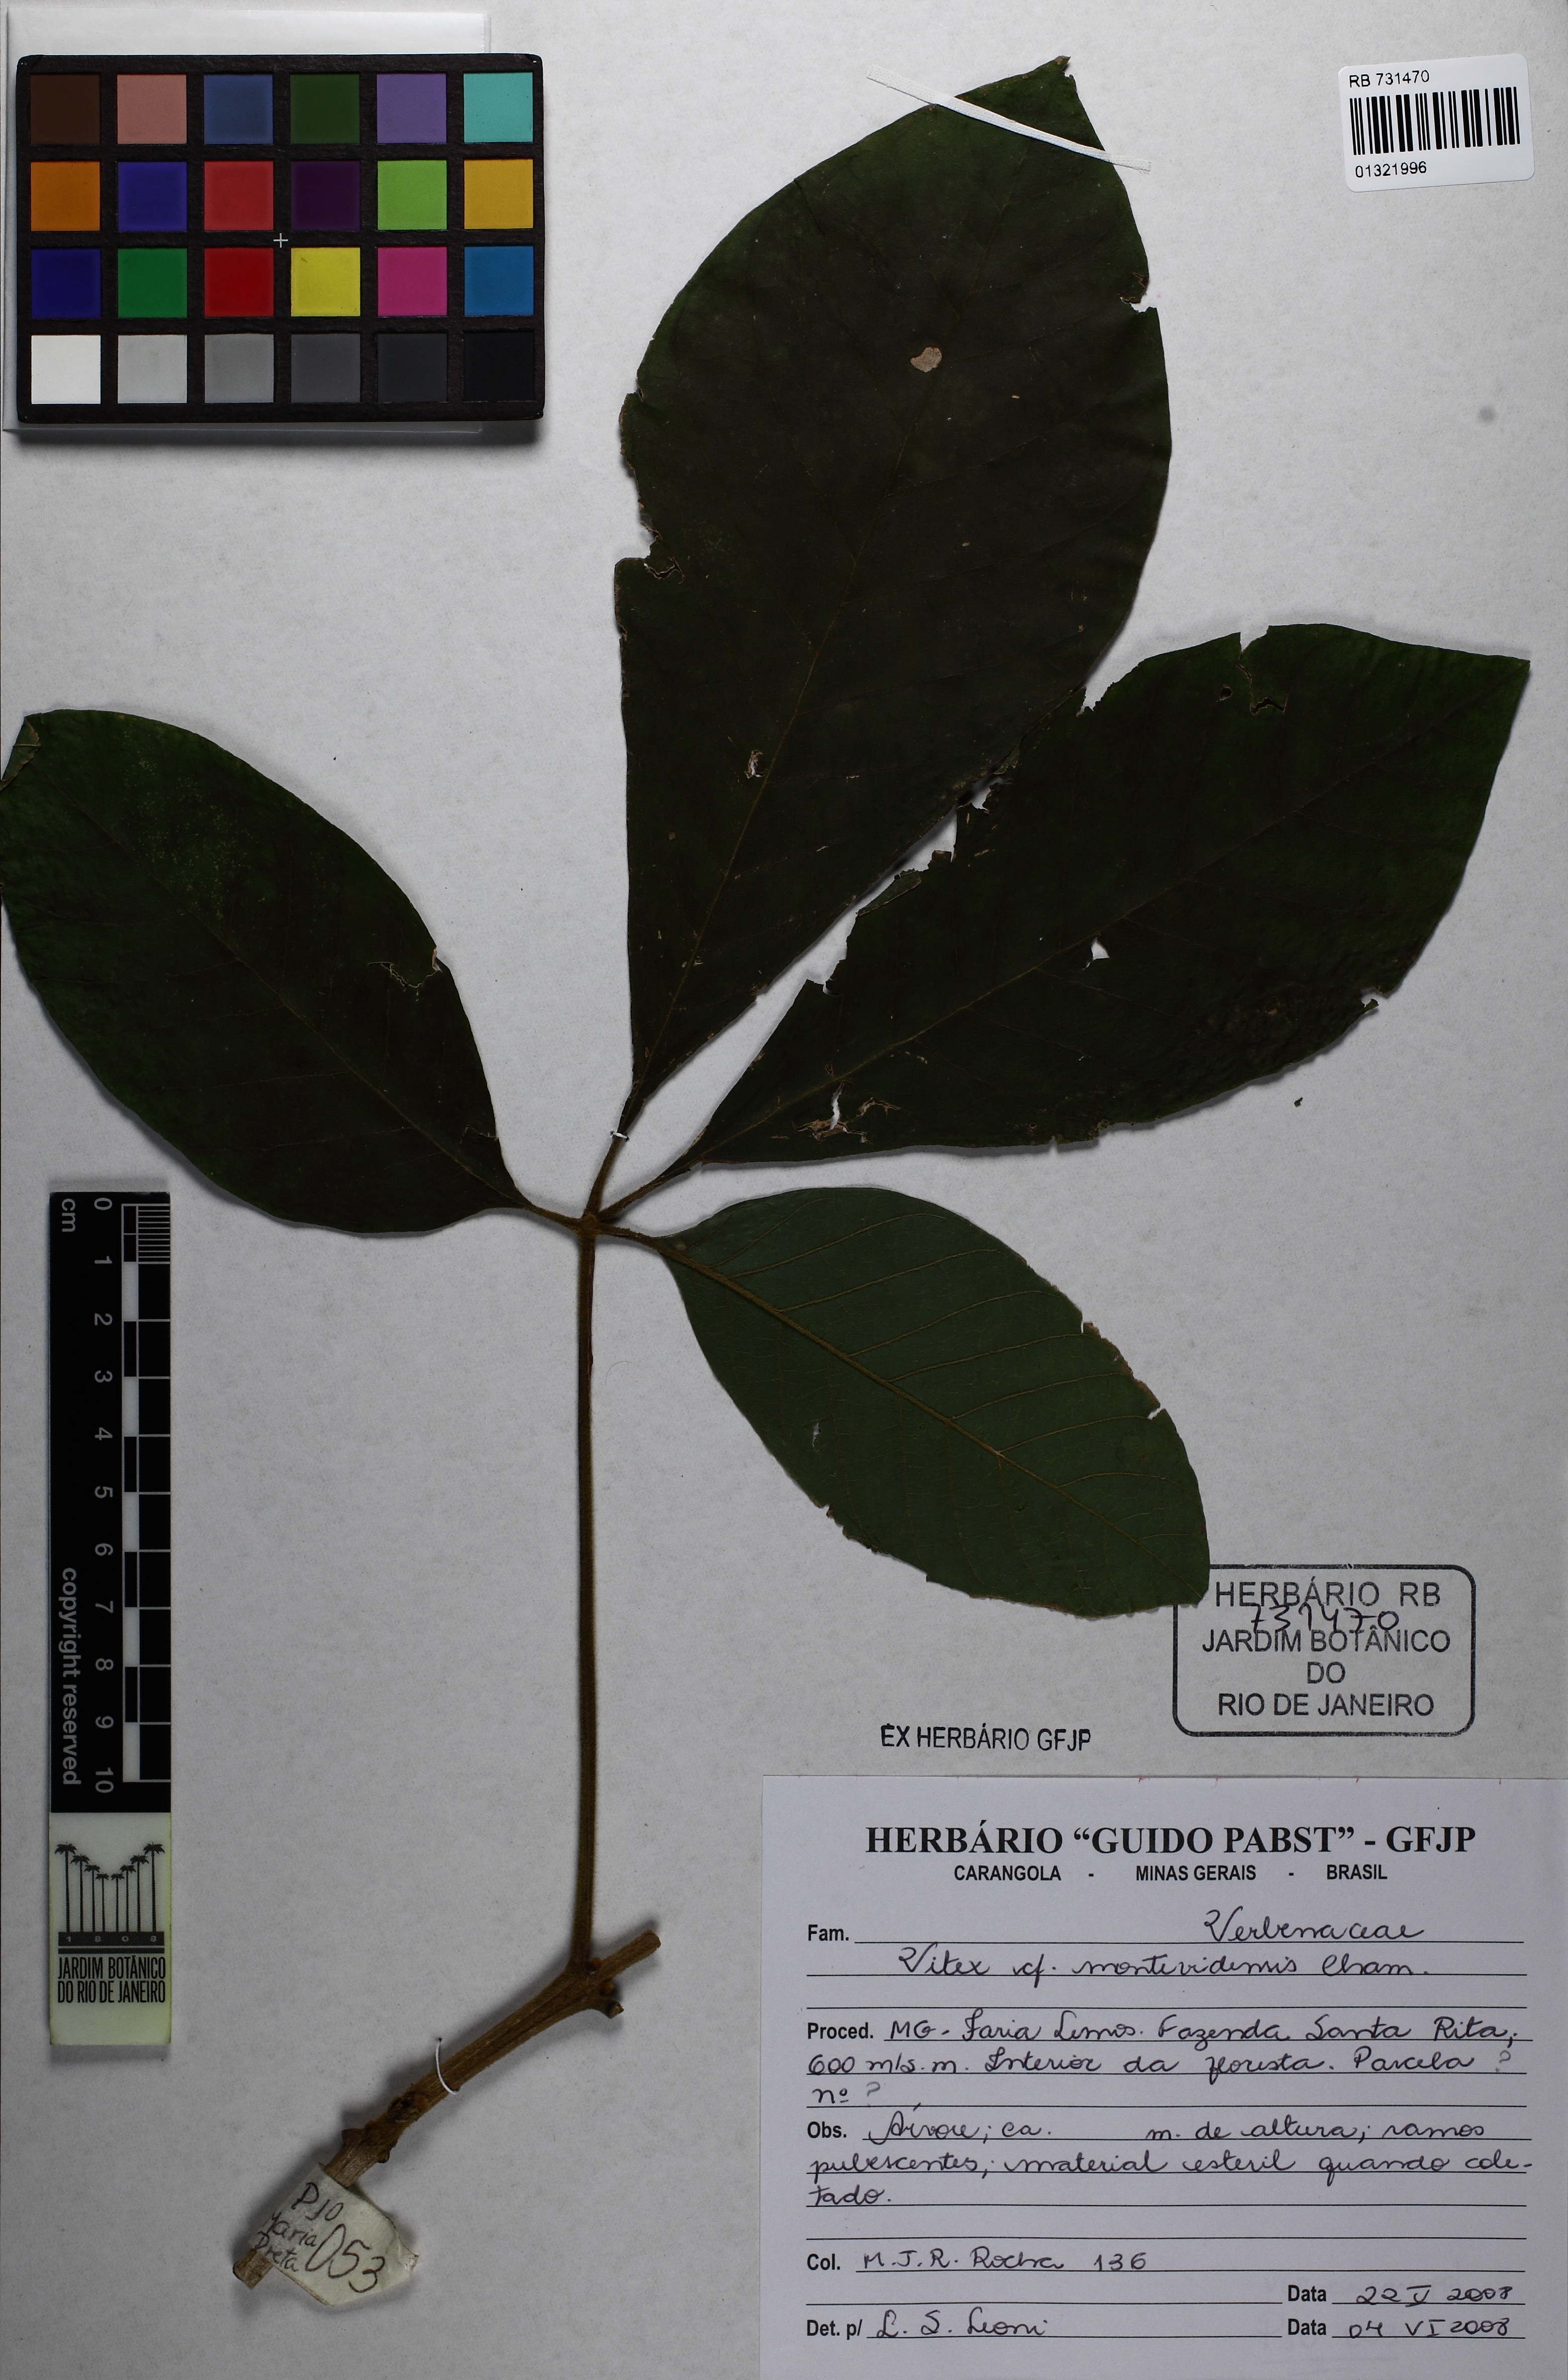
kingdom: Plantae
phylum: Tracheophyta
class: Magnoliopsida
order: Lamiales
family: Lamiaceae
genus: Vitex
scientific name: Vitex megapotamica
